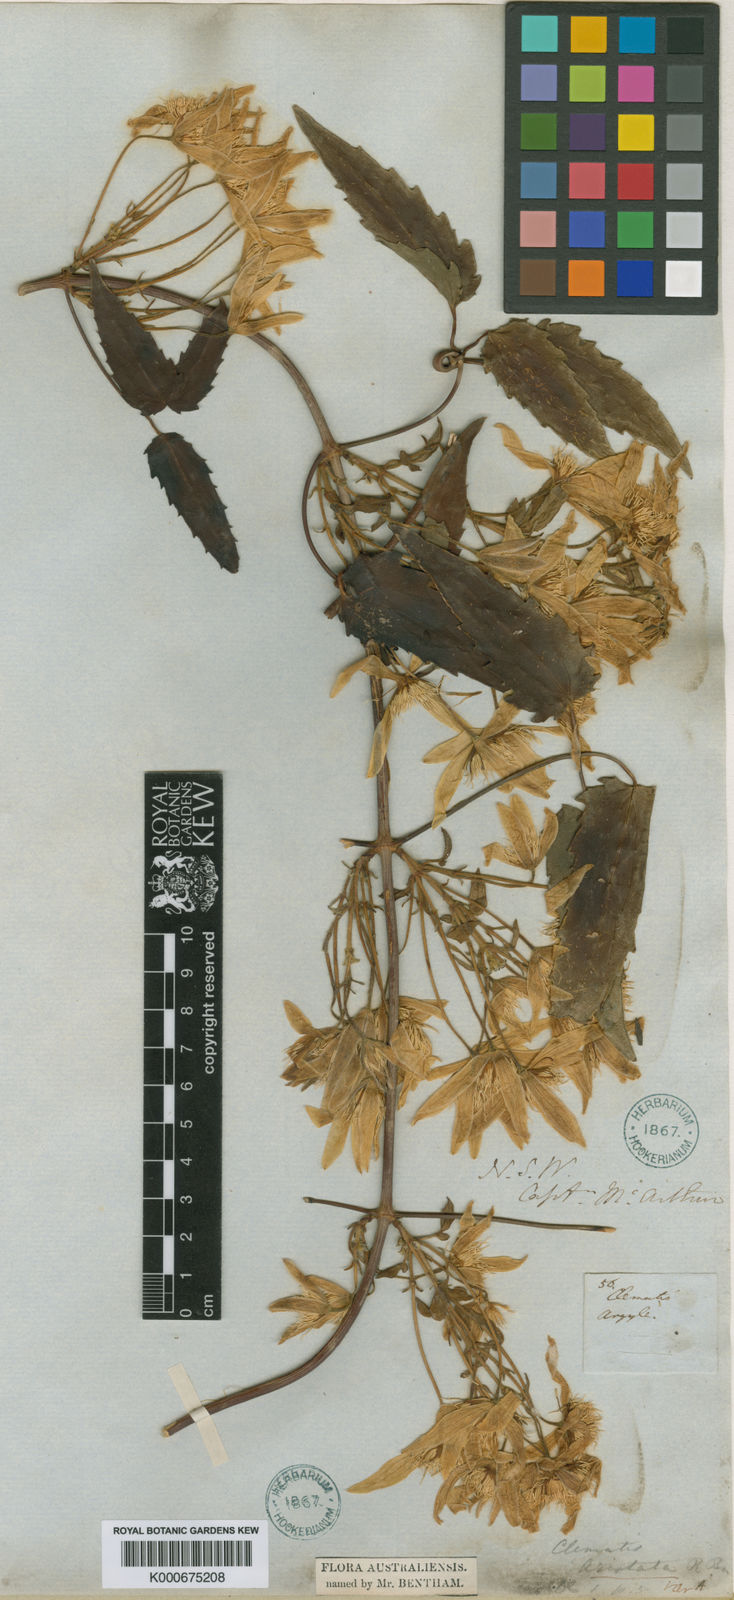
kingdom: Plantae
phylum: Tracheophyta
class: Magnoliopsida
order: Ranunculales
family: Ranunculaceae
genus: Clematis
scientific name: Clematis aristata
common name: Mountain clematis
